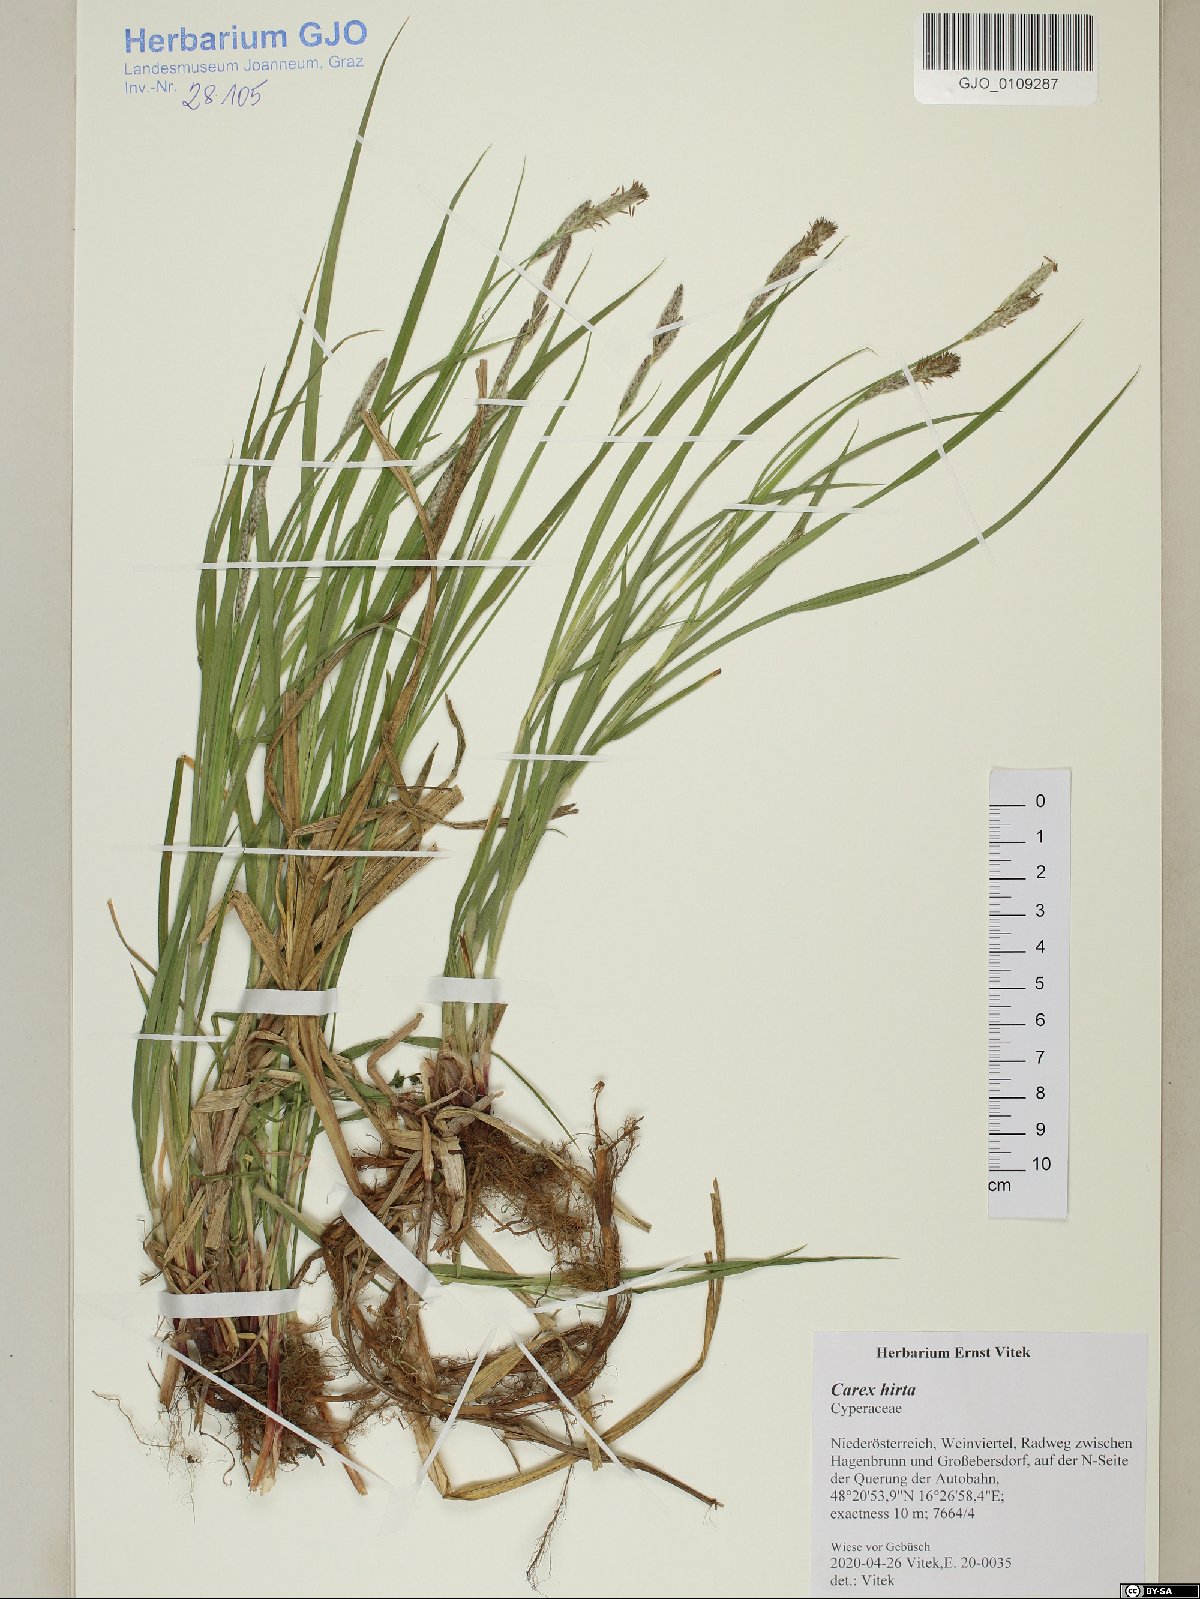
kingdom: Plantae
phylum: Tracheophyta
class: Liliopsida
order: Poales
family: Cyperaceae
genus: Carex
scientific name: Carex hirta
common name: Hairy sedge
